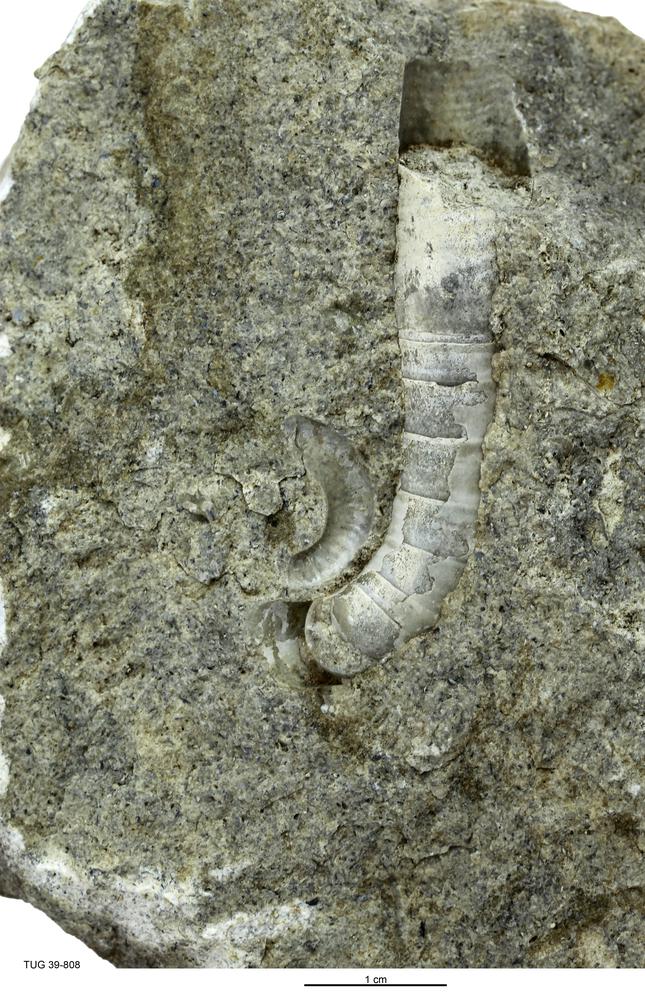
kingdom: Animalia
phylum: Mollusca
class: Cephalopoda
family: Lituitidae
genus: Lituites
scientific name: Lituites lituus
